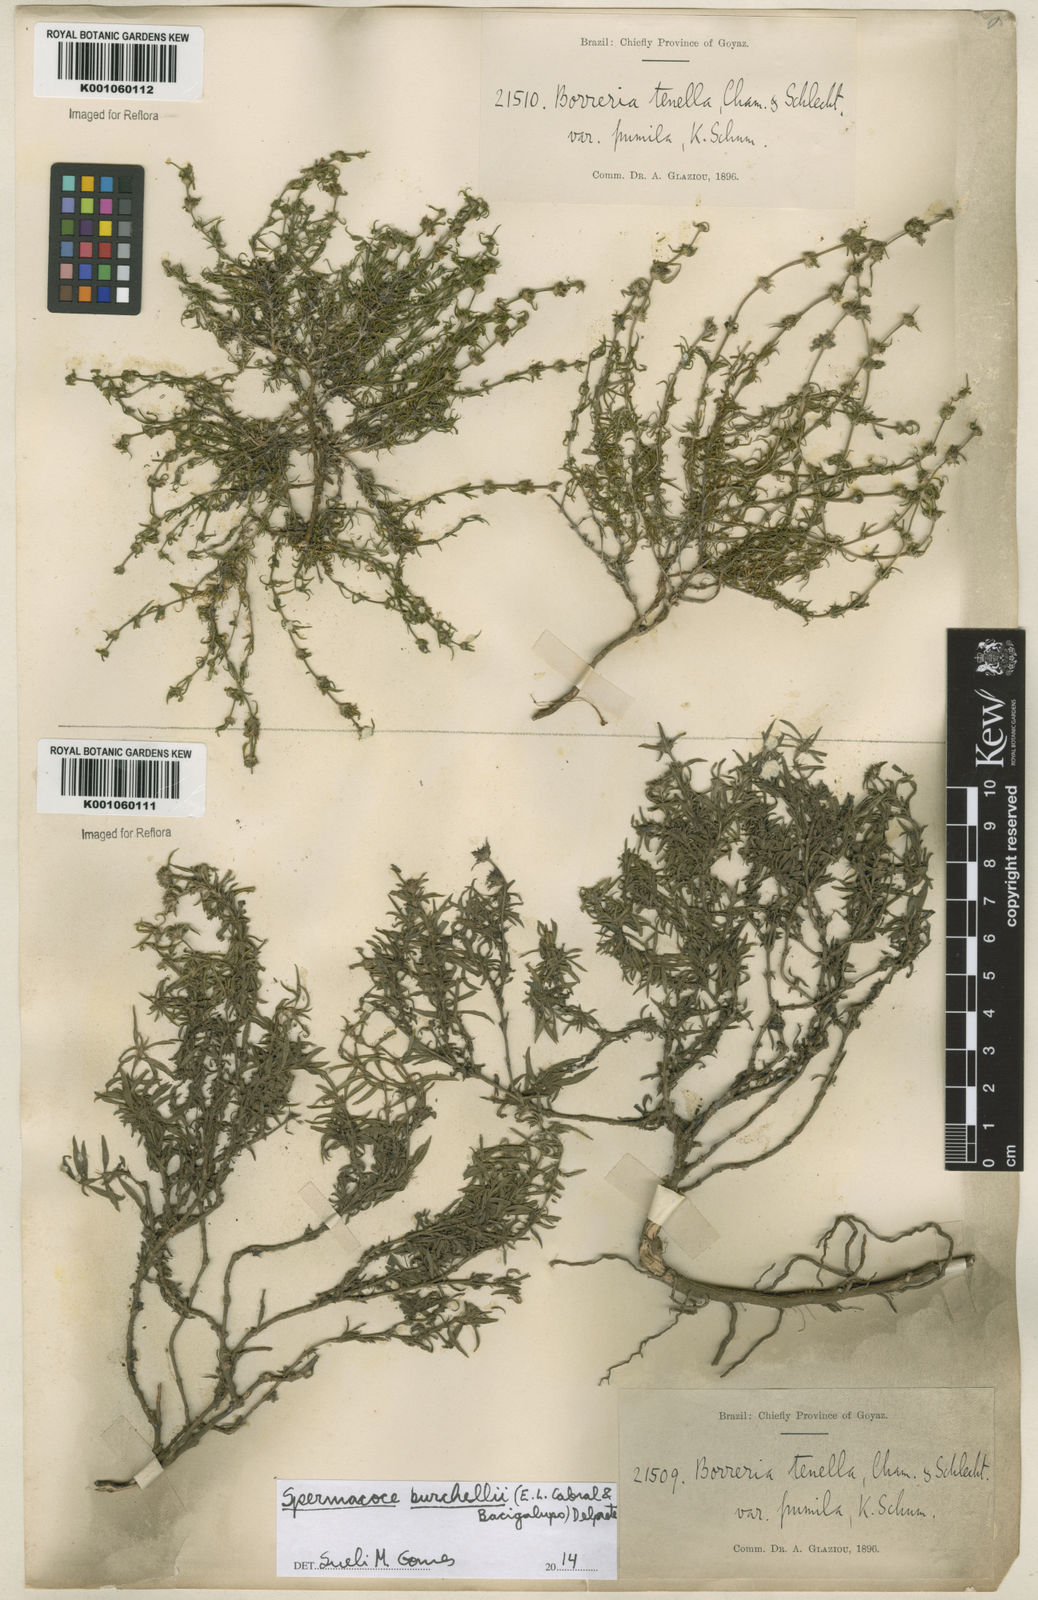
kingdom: Plantae
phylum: Tracheophyta
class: Magnoliopsida
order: Gentianales
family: Rubiaceae
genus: Spermacoce
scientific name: Spermacoce burchellii
